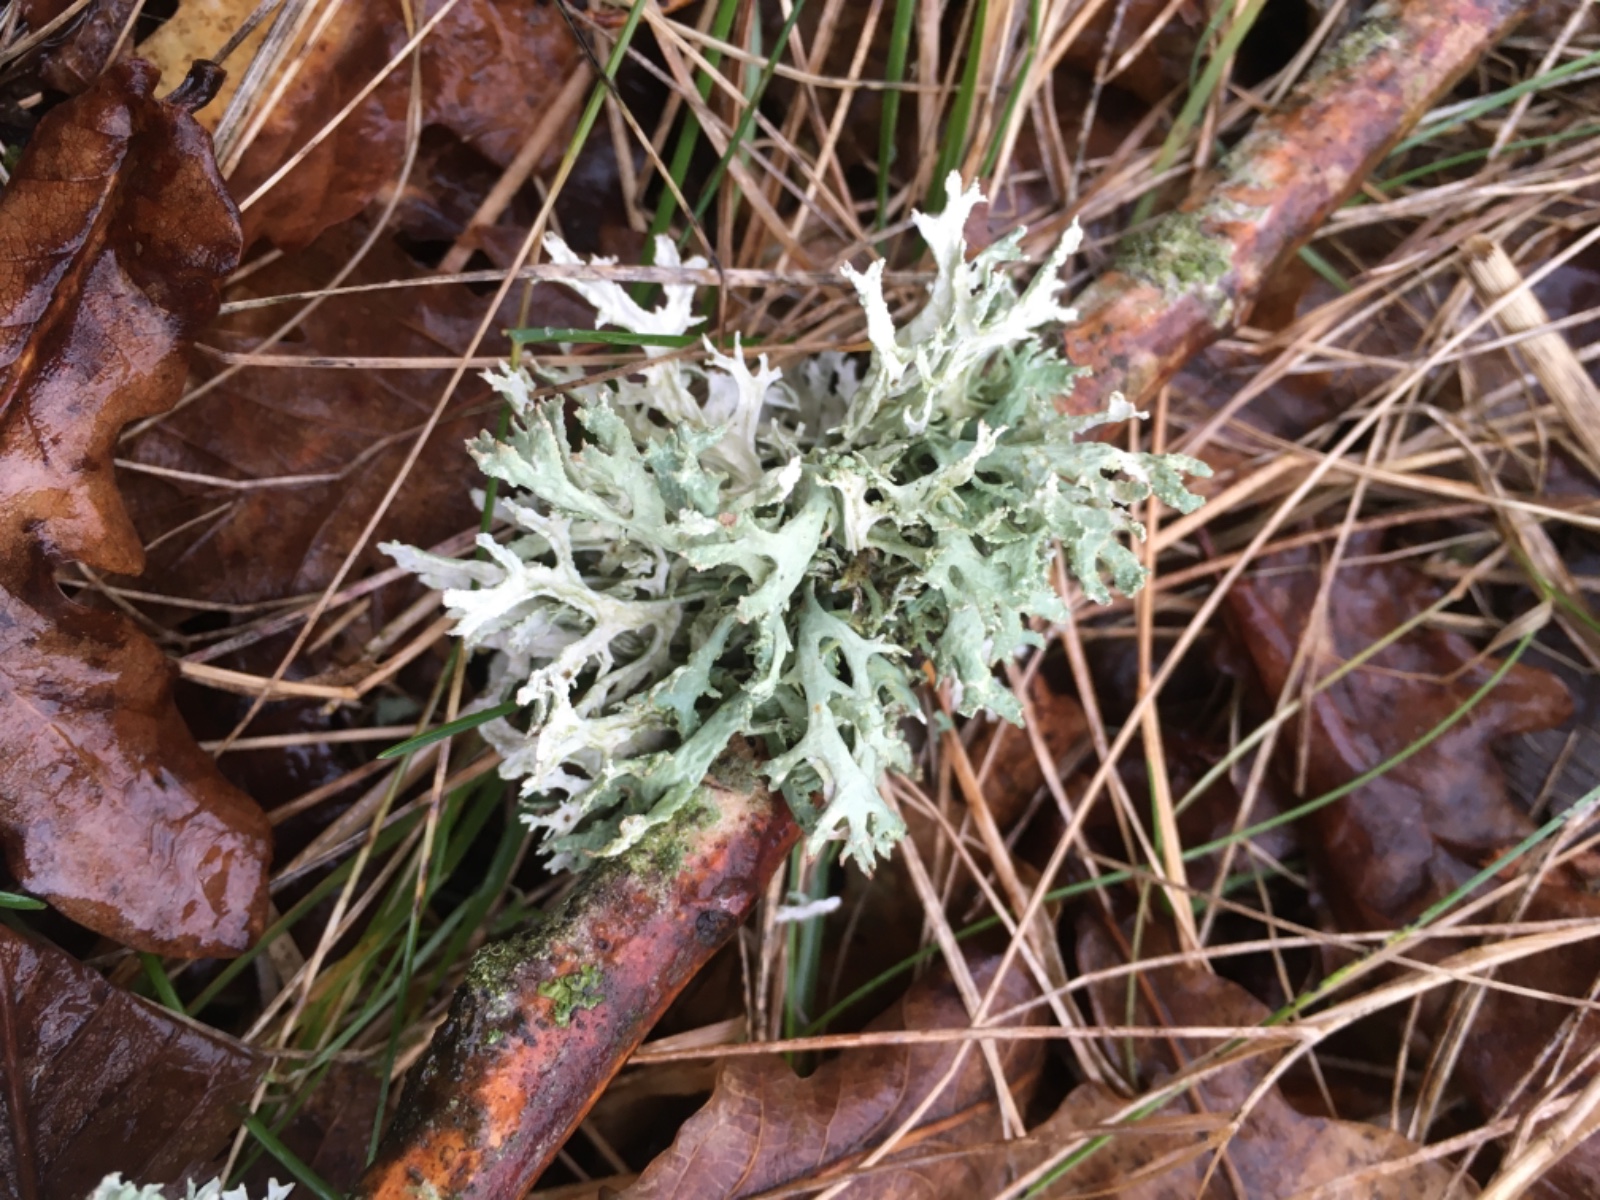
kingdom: Fungi
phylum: Ascomycota
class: Lecanoromycetes
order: Lecanorales
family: Parmeliaceae
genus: Evernia
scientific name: Evernia prunastri
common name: almindelig slåenlav
